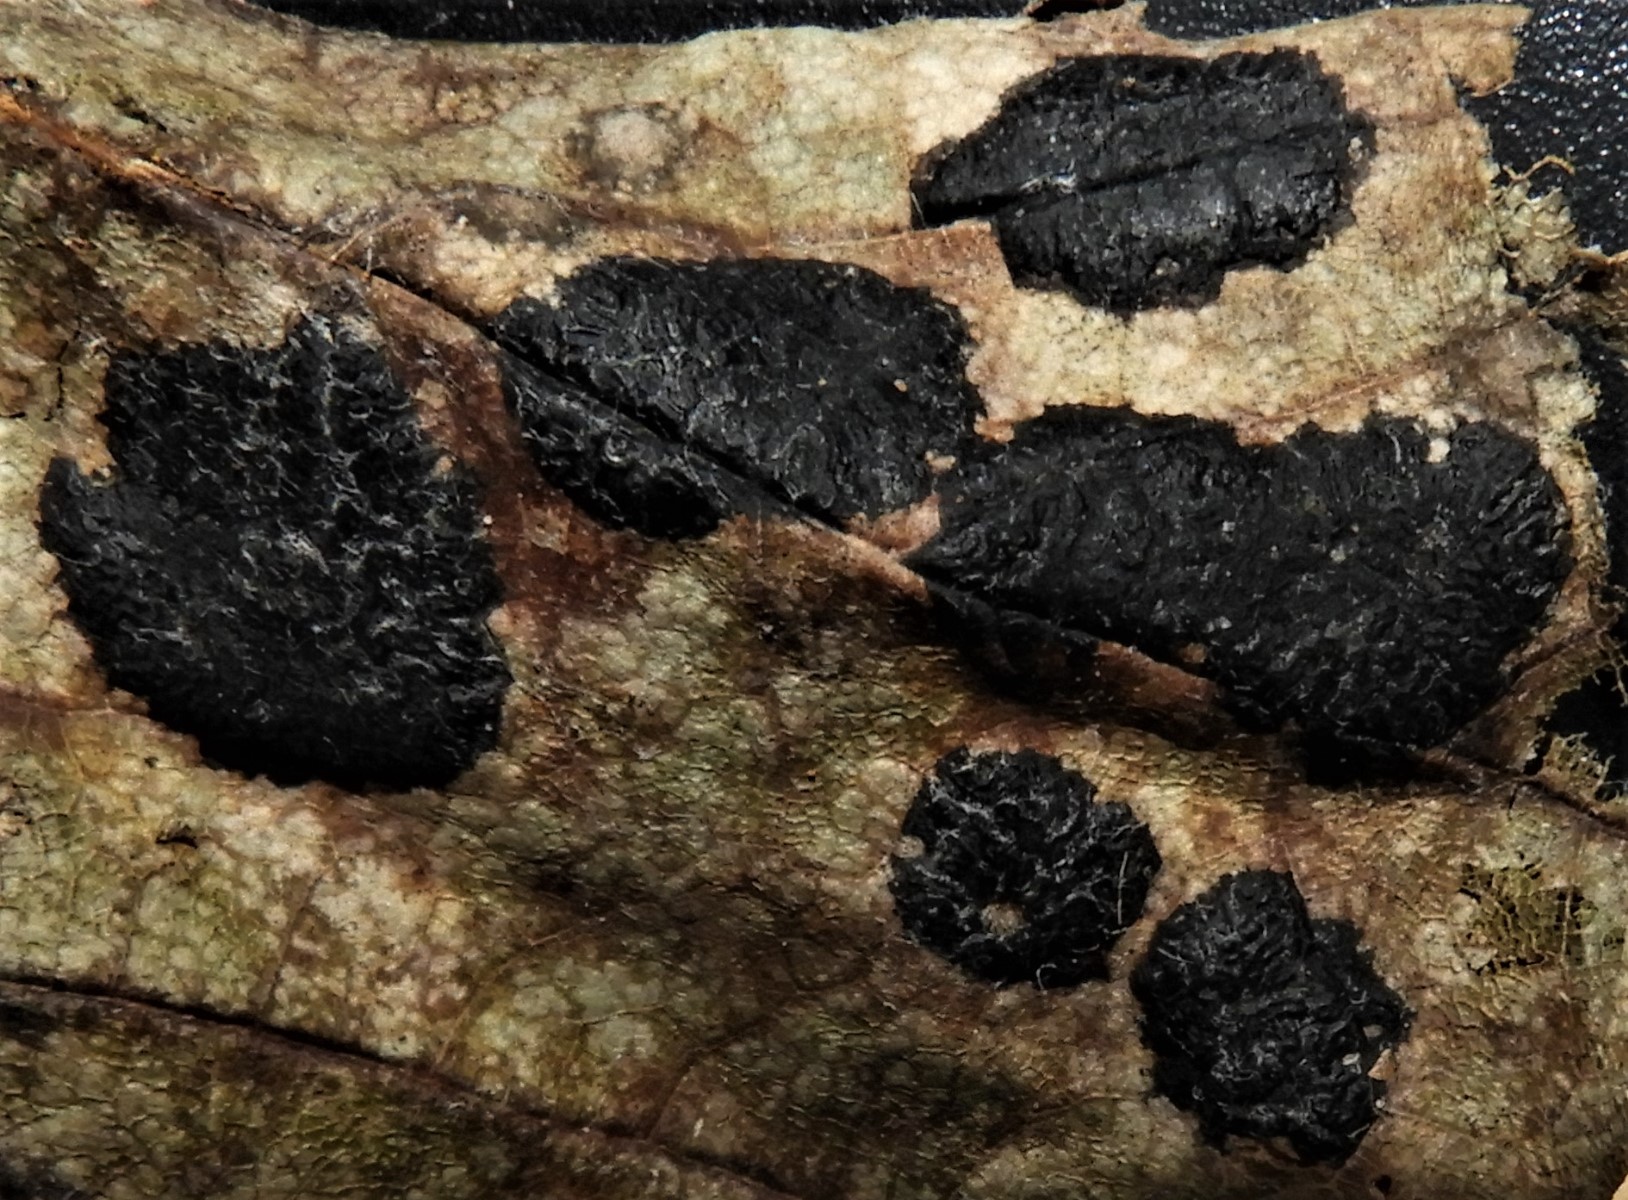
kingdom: Fungi
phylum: Ascomycota
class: Leotiomycetes
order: Rhytismatales
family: Rhytismataceae
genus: Rhytisma
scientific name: Rhytisma acerinum
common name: ahorn-rynkeplet
